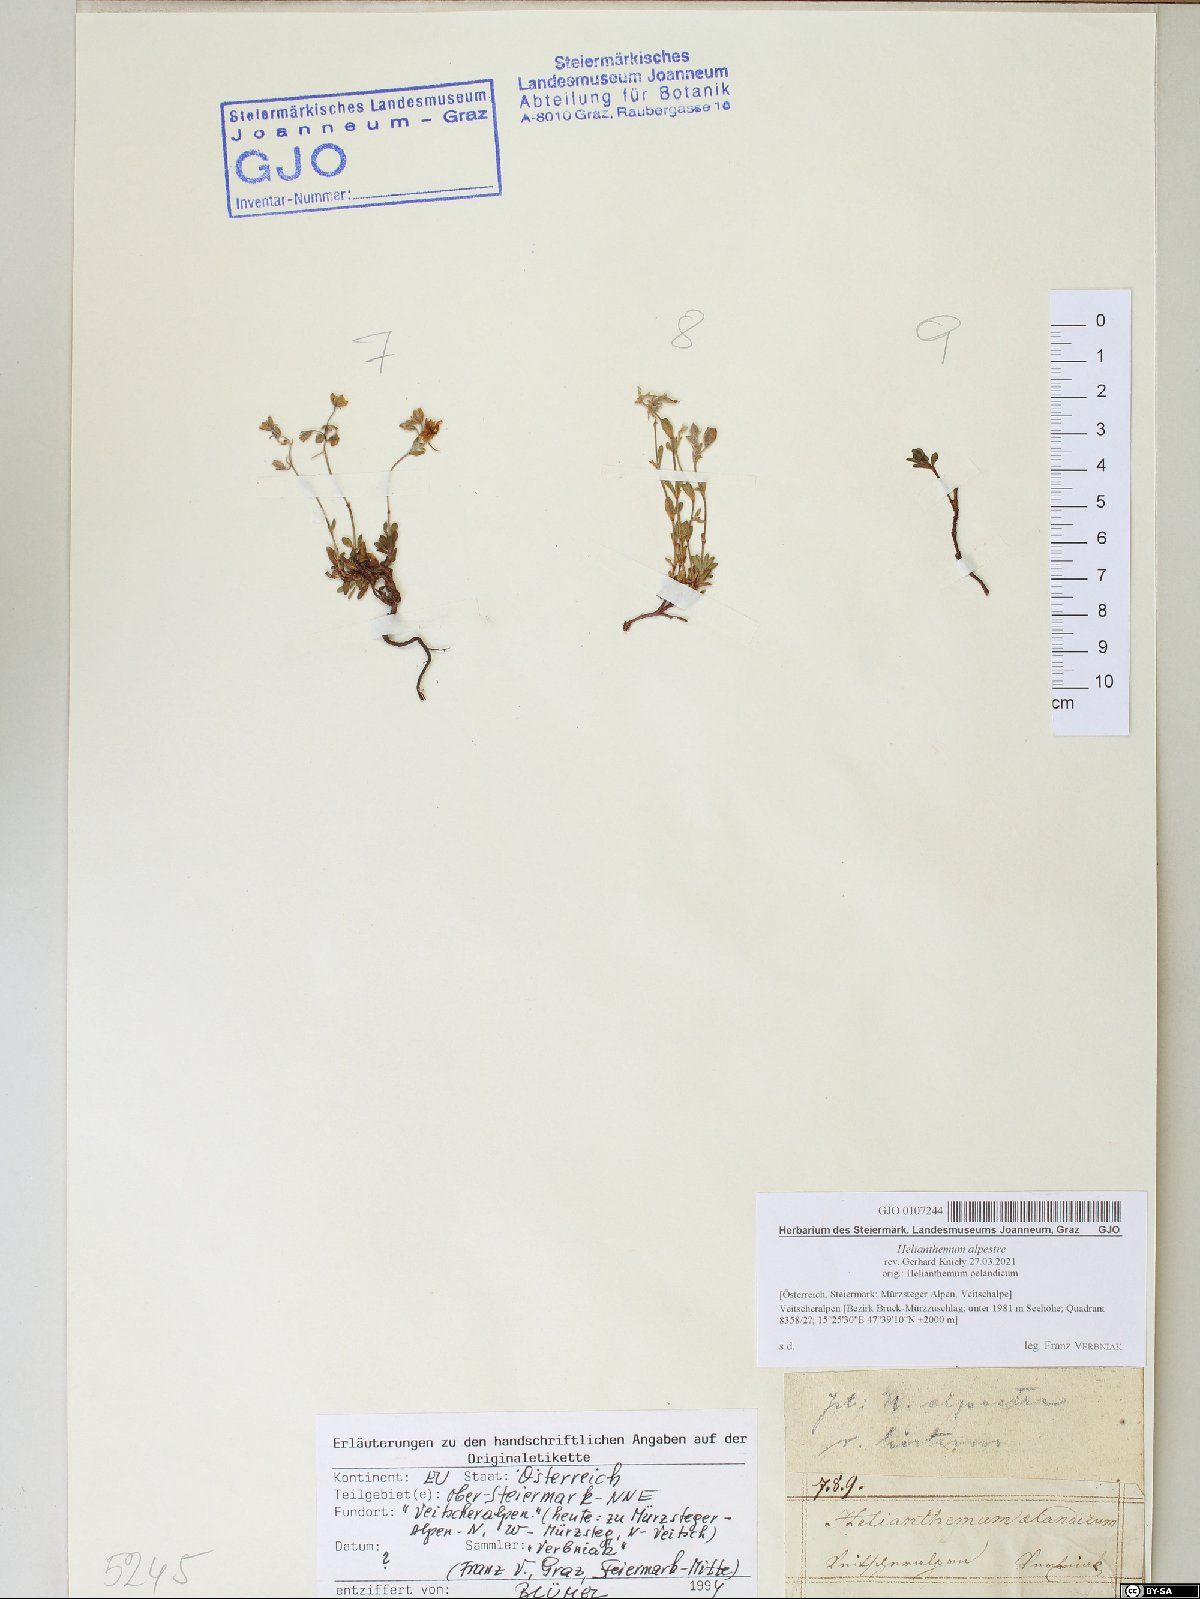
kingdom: Plantae
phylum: Tracheophyta
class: Magnoliopsida
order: Malvales
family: Cistaceae
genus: Helianthemum
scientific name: Helianthemum alpestre
